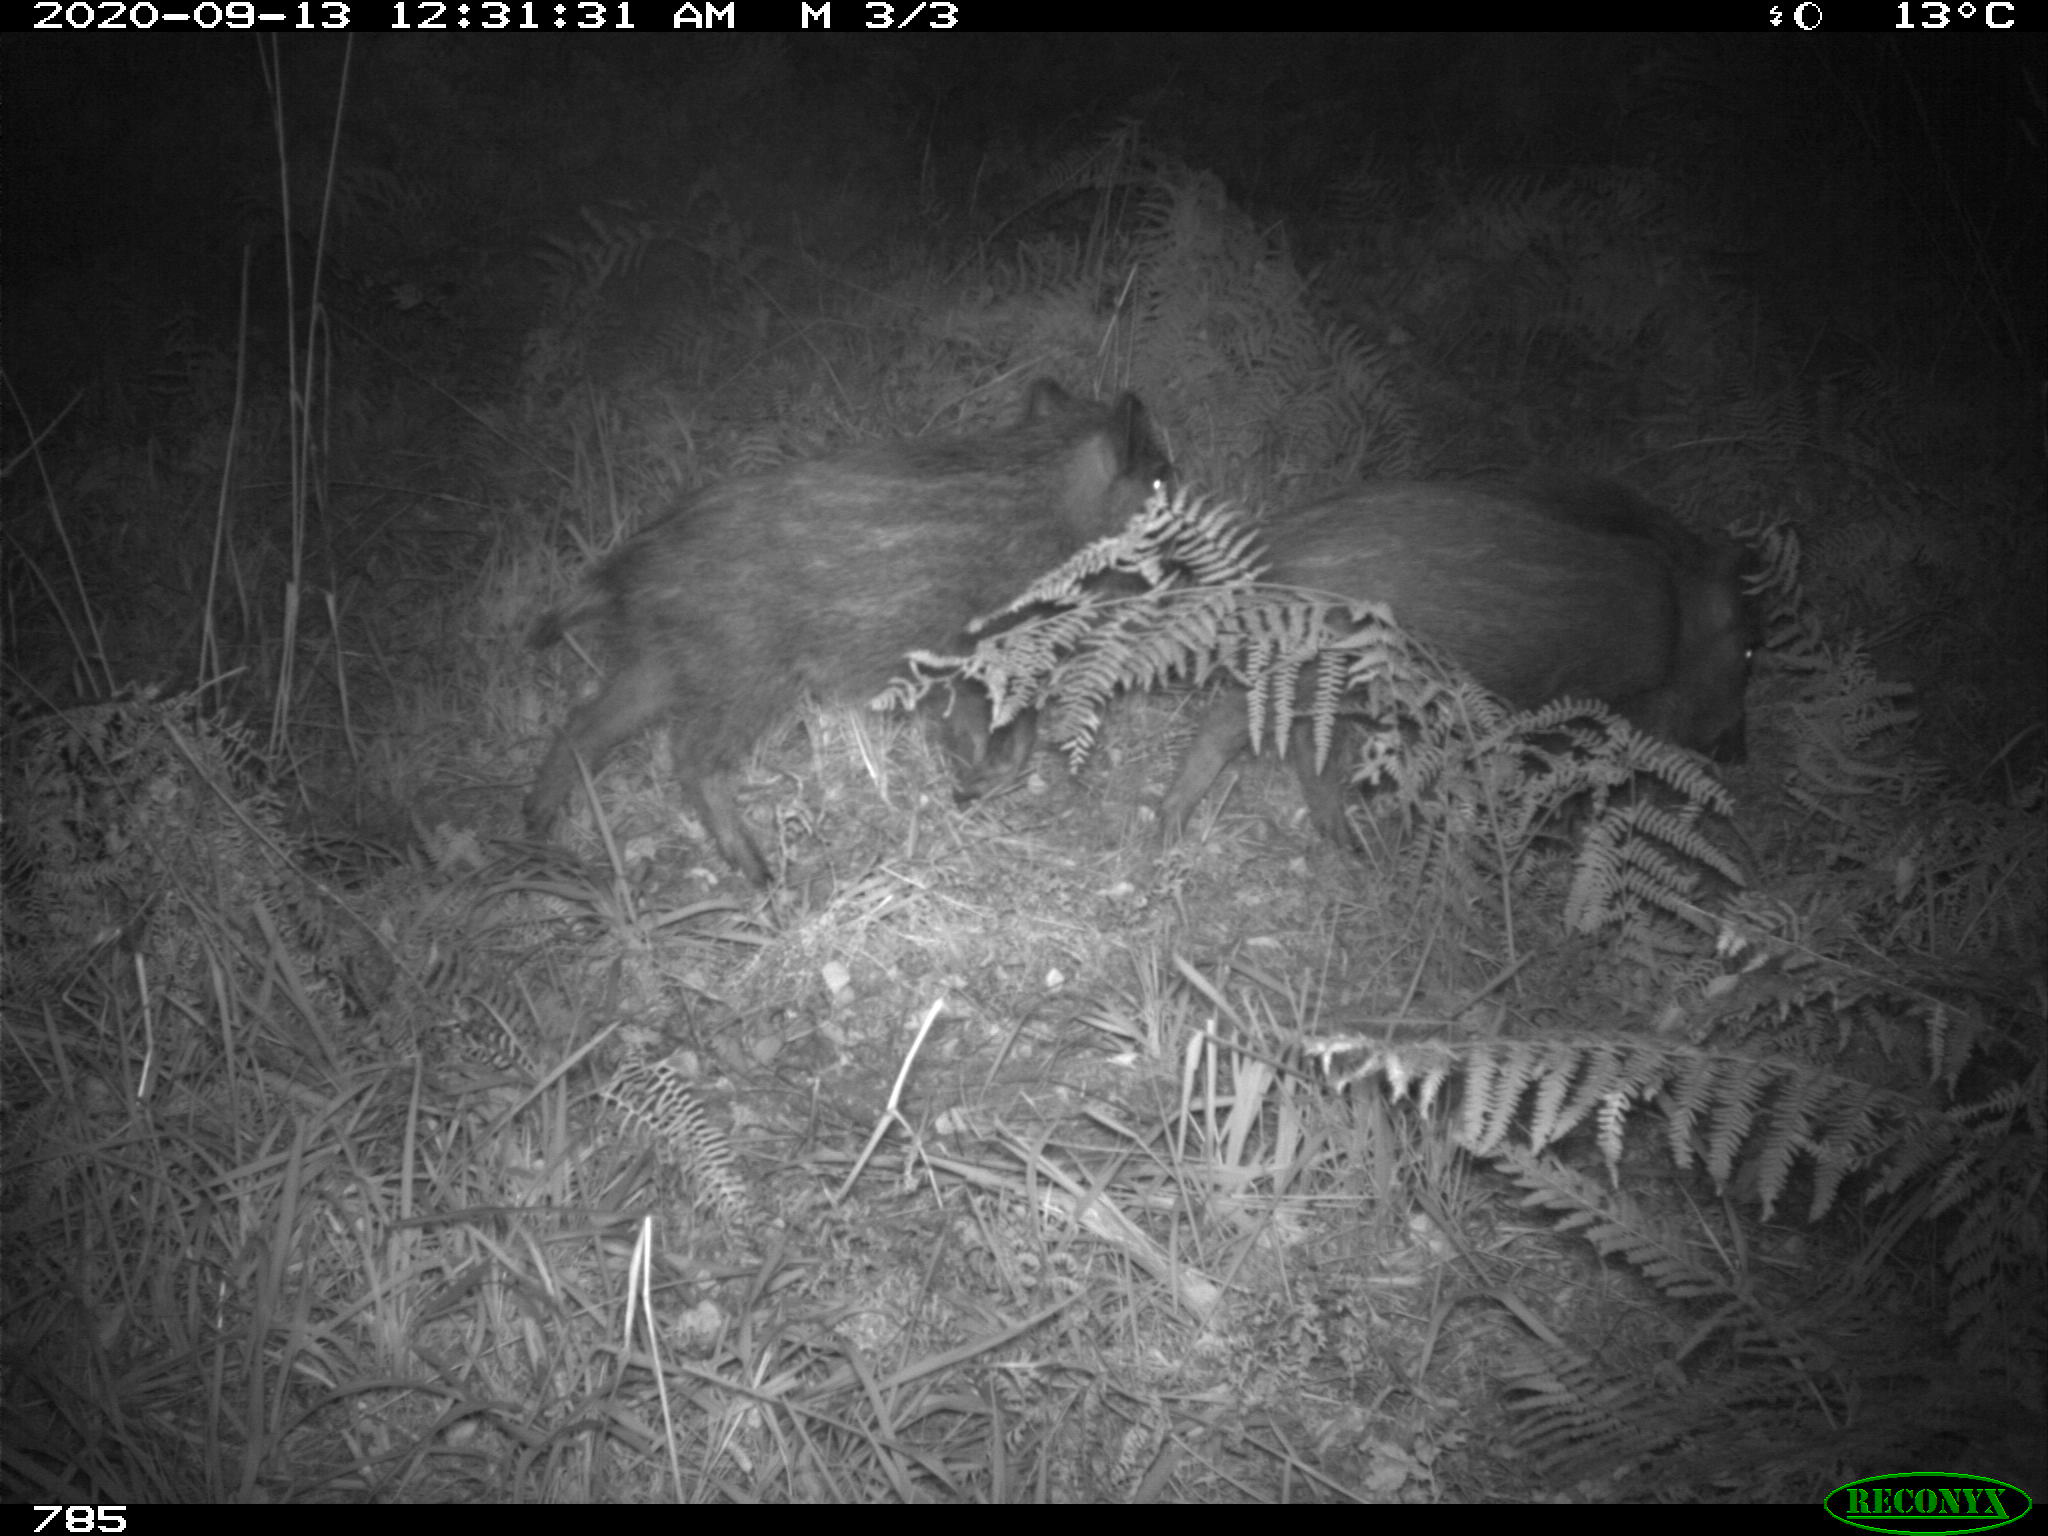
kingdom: Animalia
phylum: Chordata
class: Mammalia
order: Artiodactyla
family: Suidae
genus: Sus
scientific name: Sus scrofa
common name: Wild boar
